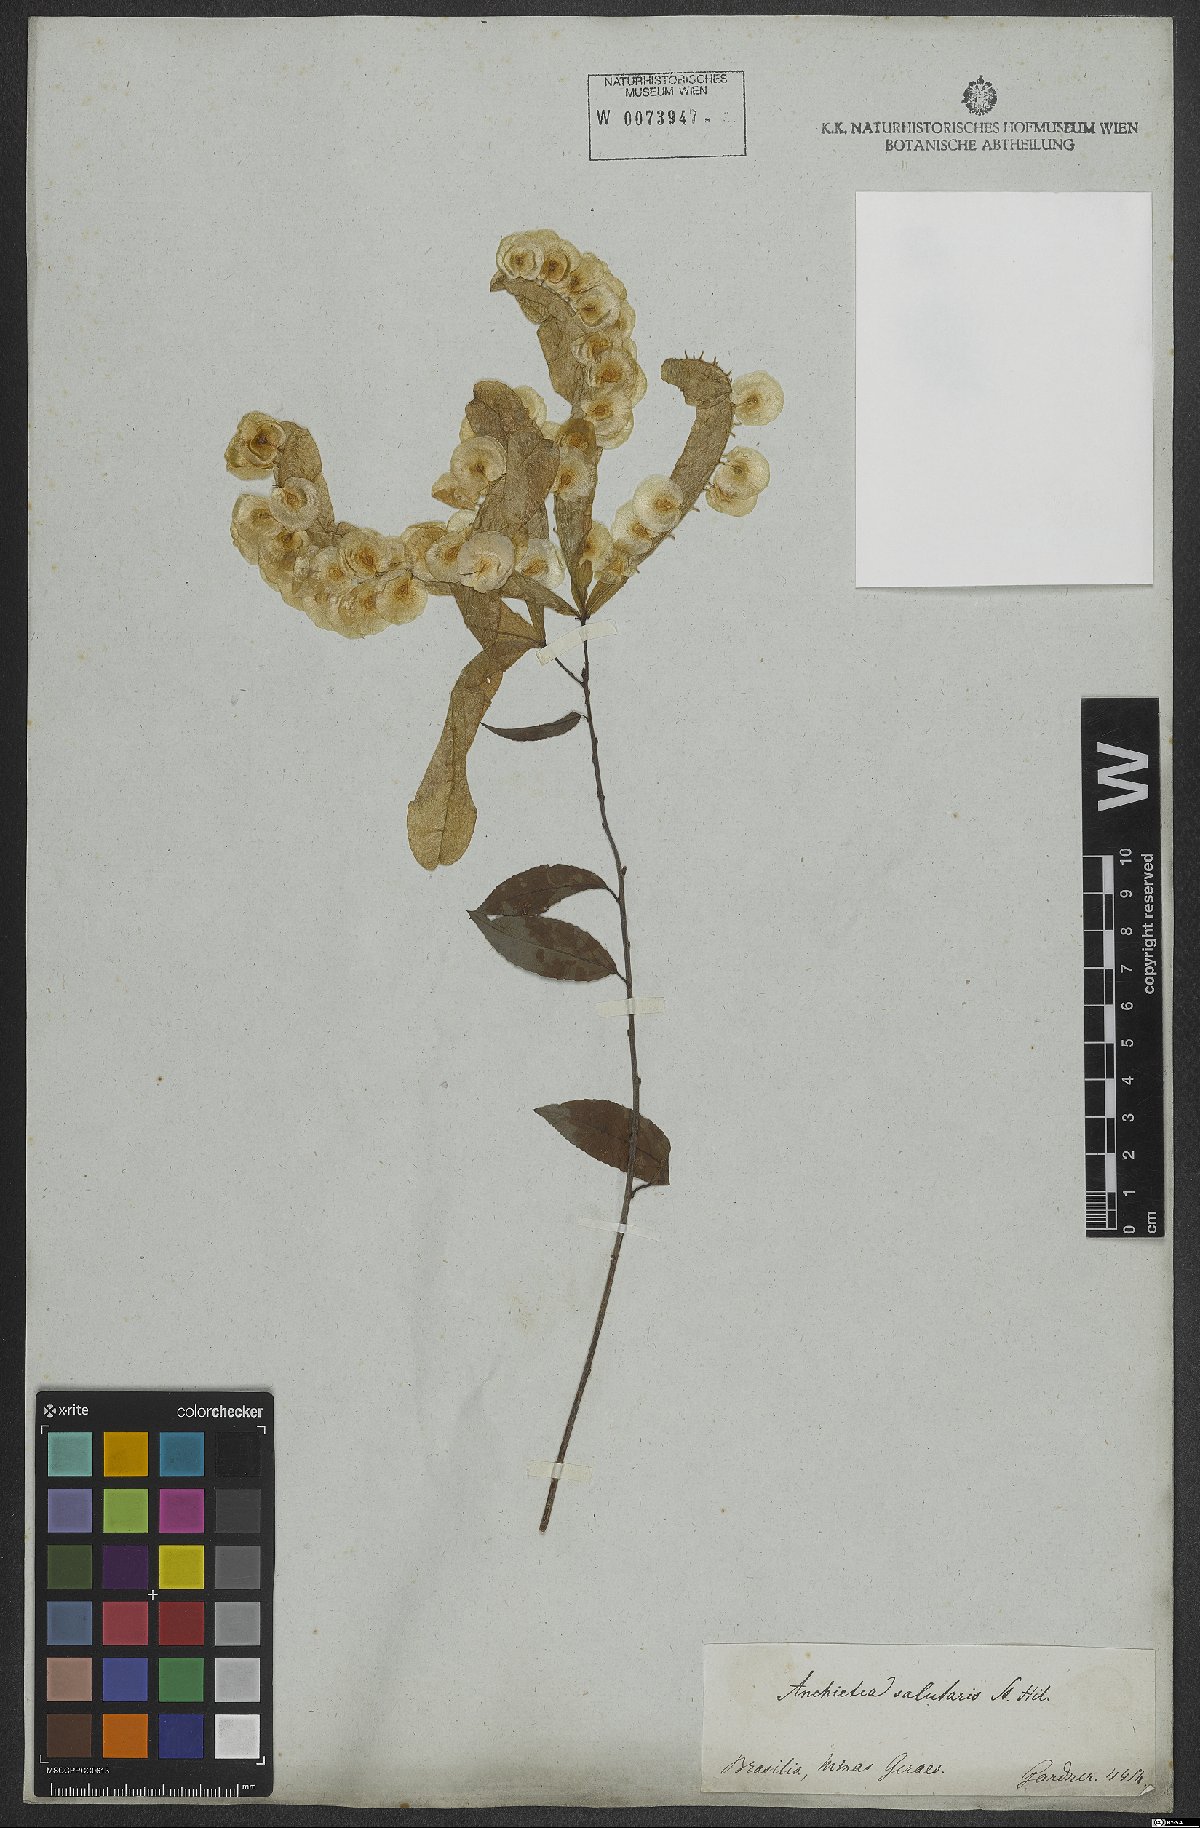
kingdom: Plantae
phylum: Tracheophyta
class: Magnoliopsida
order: Malpighiales
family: Violaceae
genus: Anchietea
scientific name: Anchietea pyrifolia
